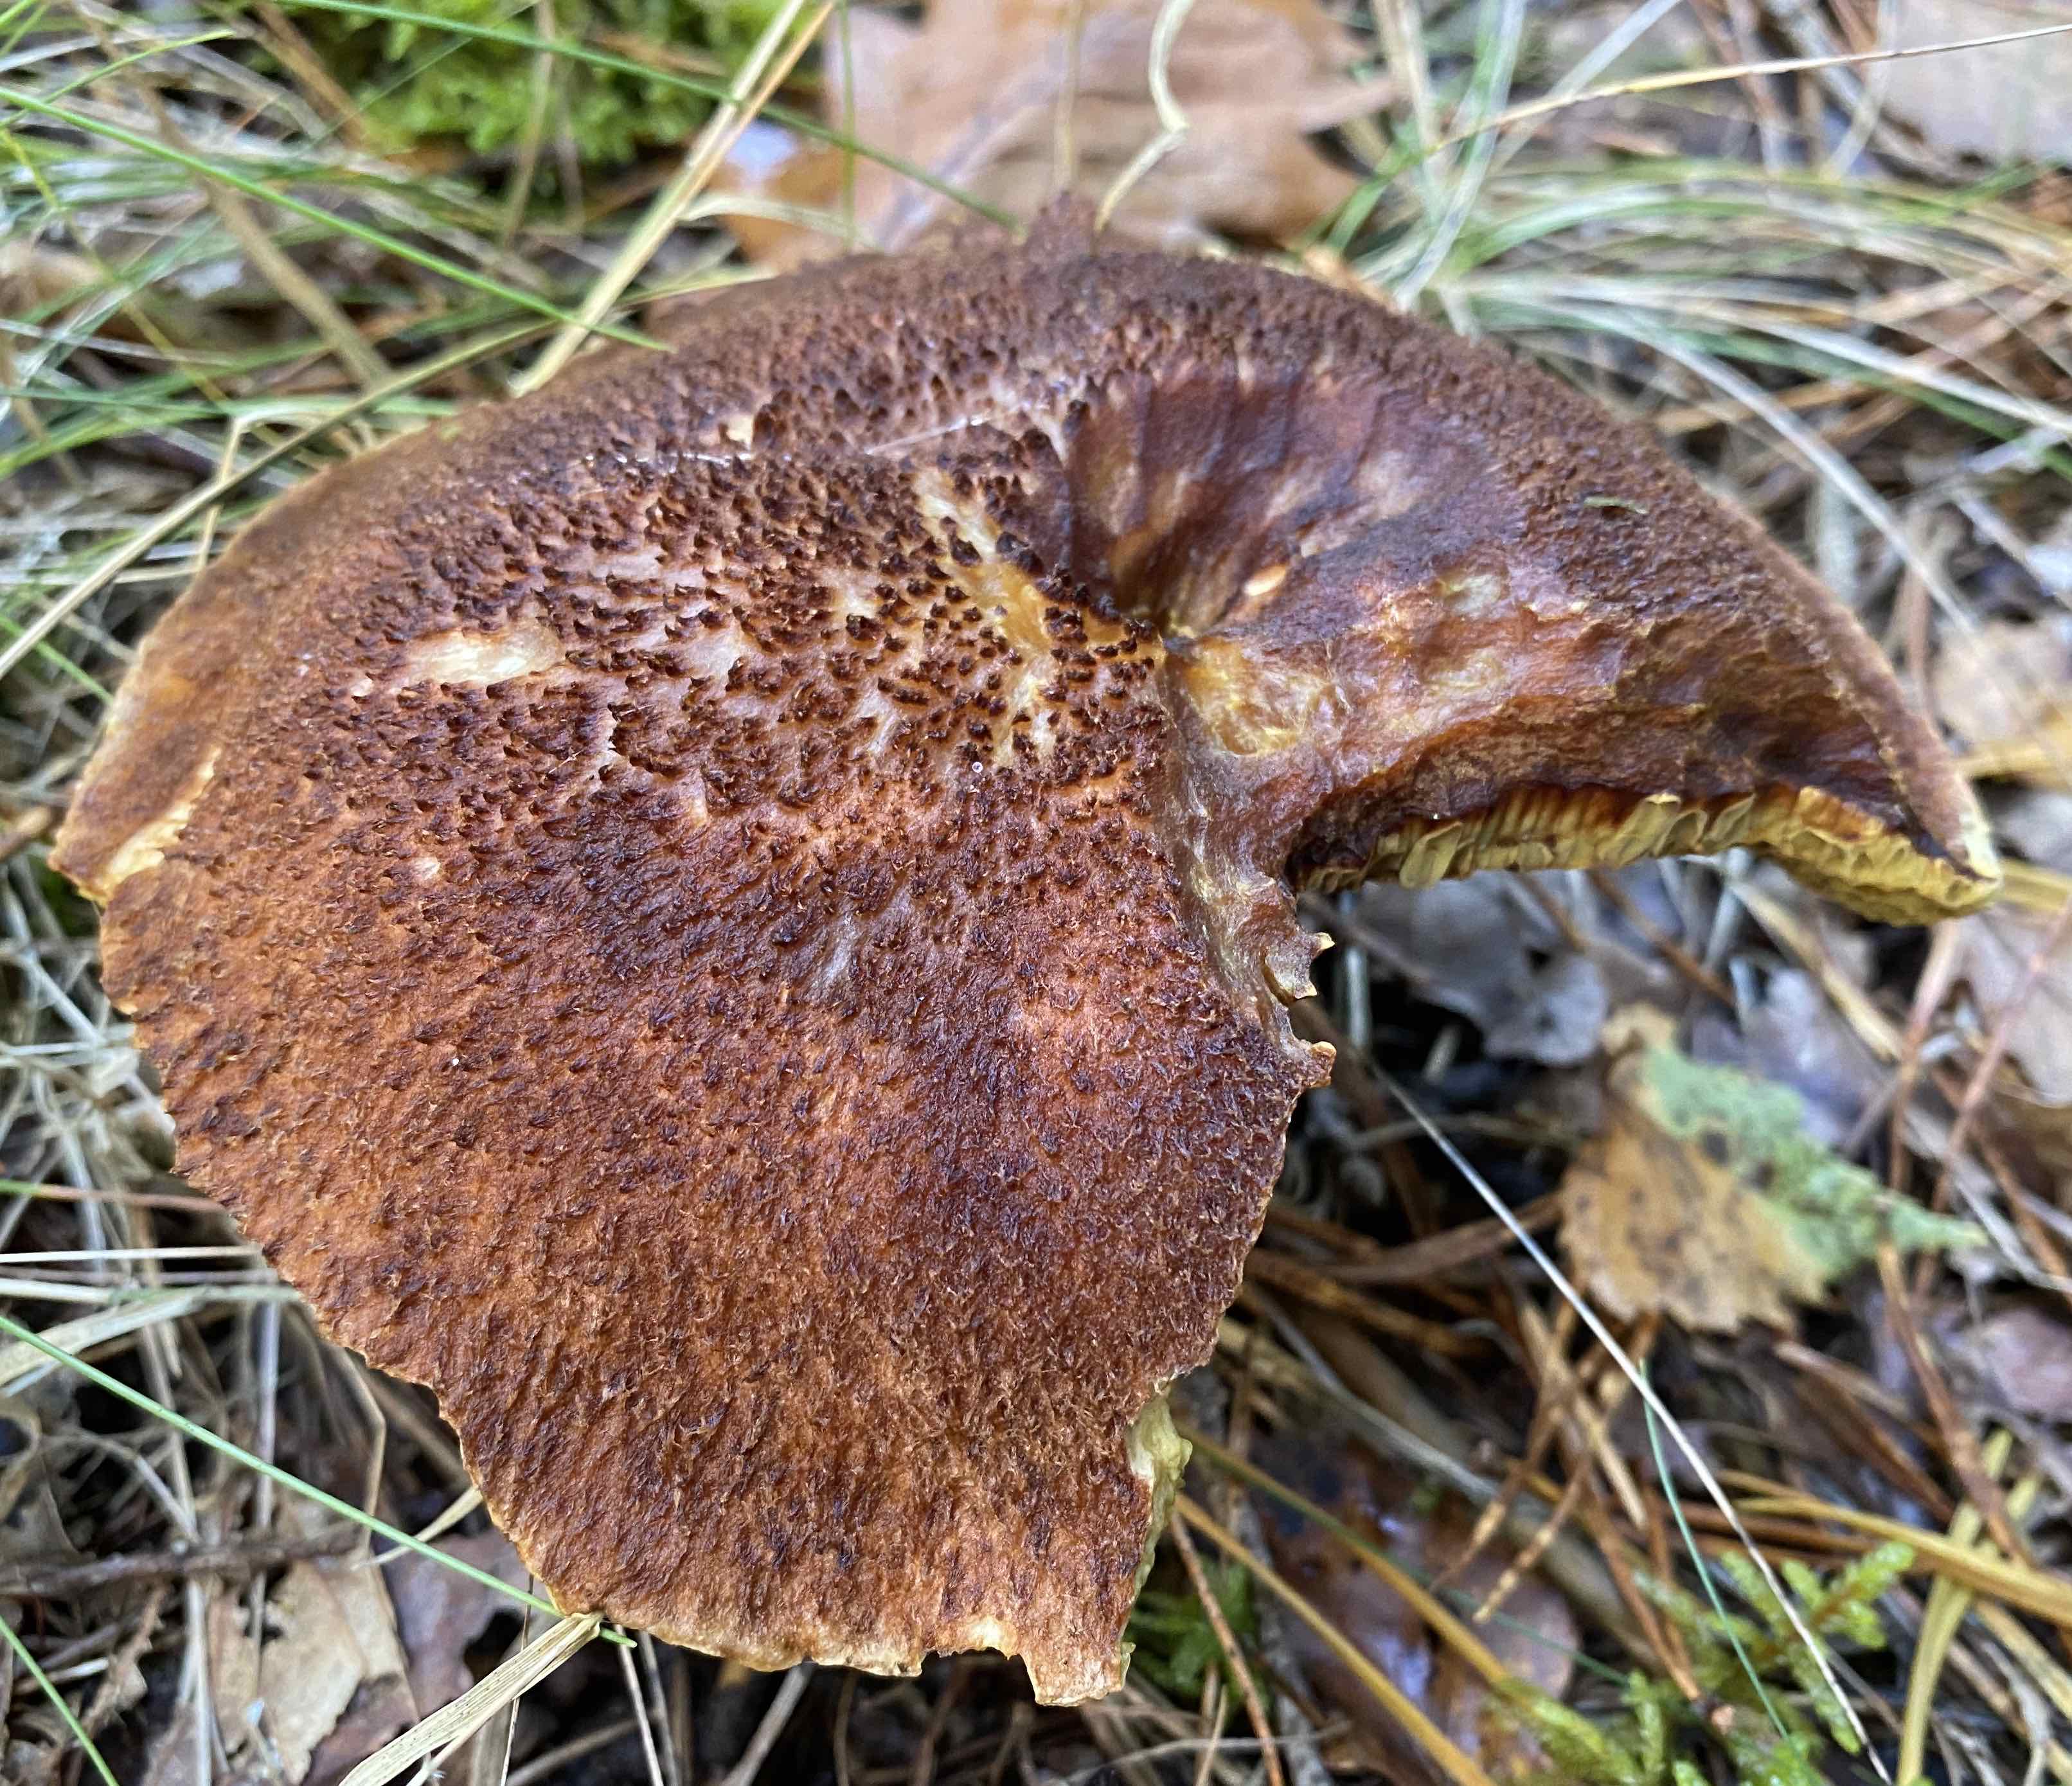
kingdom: Fungi
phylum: Basidiomycota
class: Agaricomycetes
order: Boletales
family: Suillaceae
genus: Suillus
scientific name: Suillus cavipes
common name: hulstokket slimrørhat
